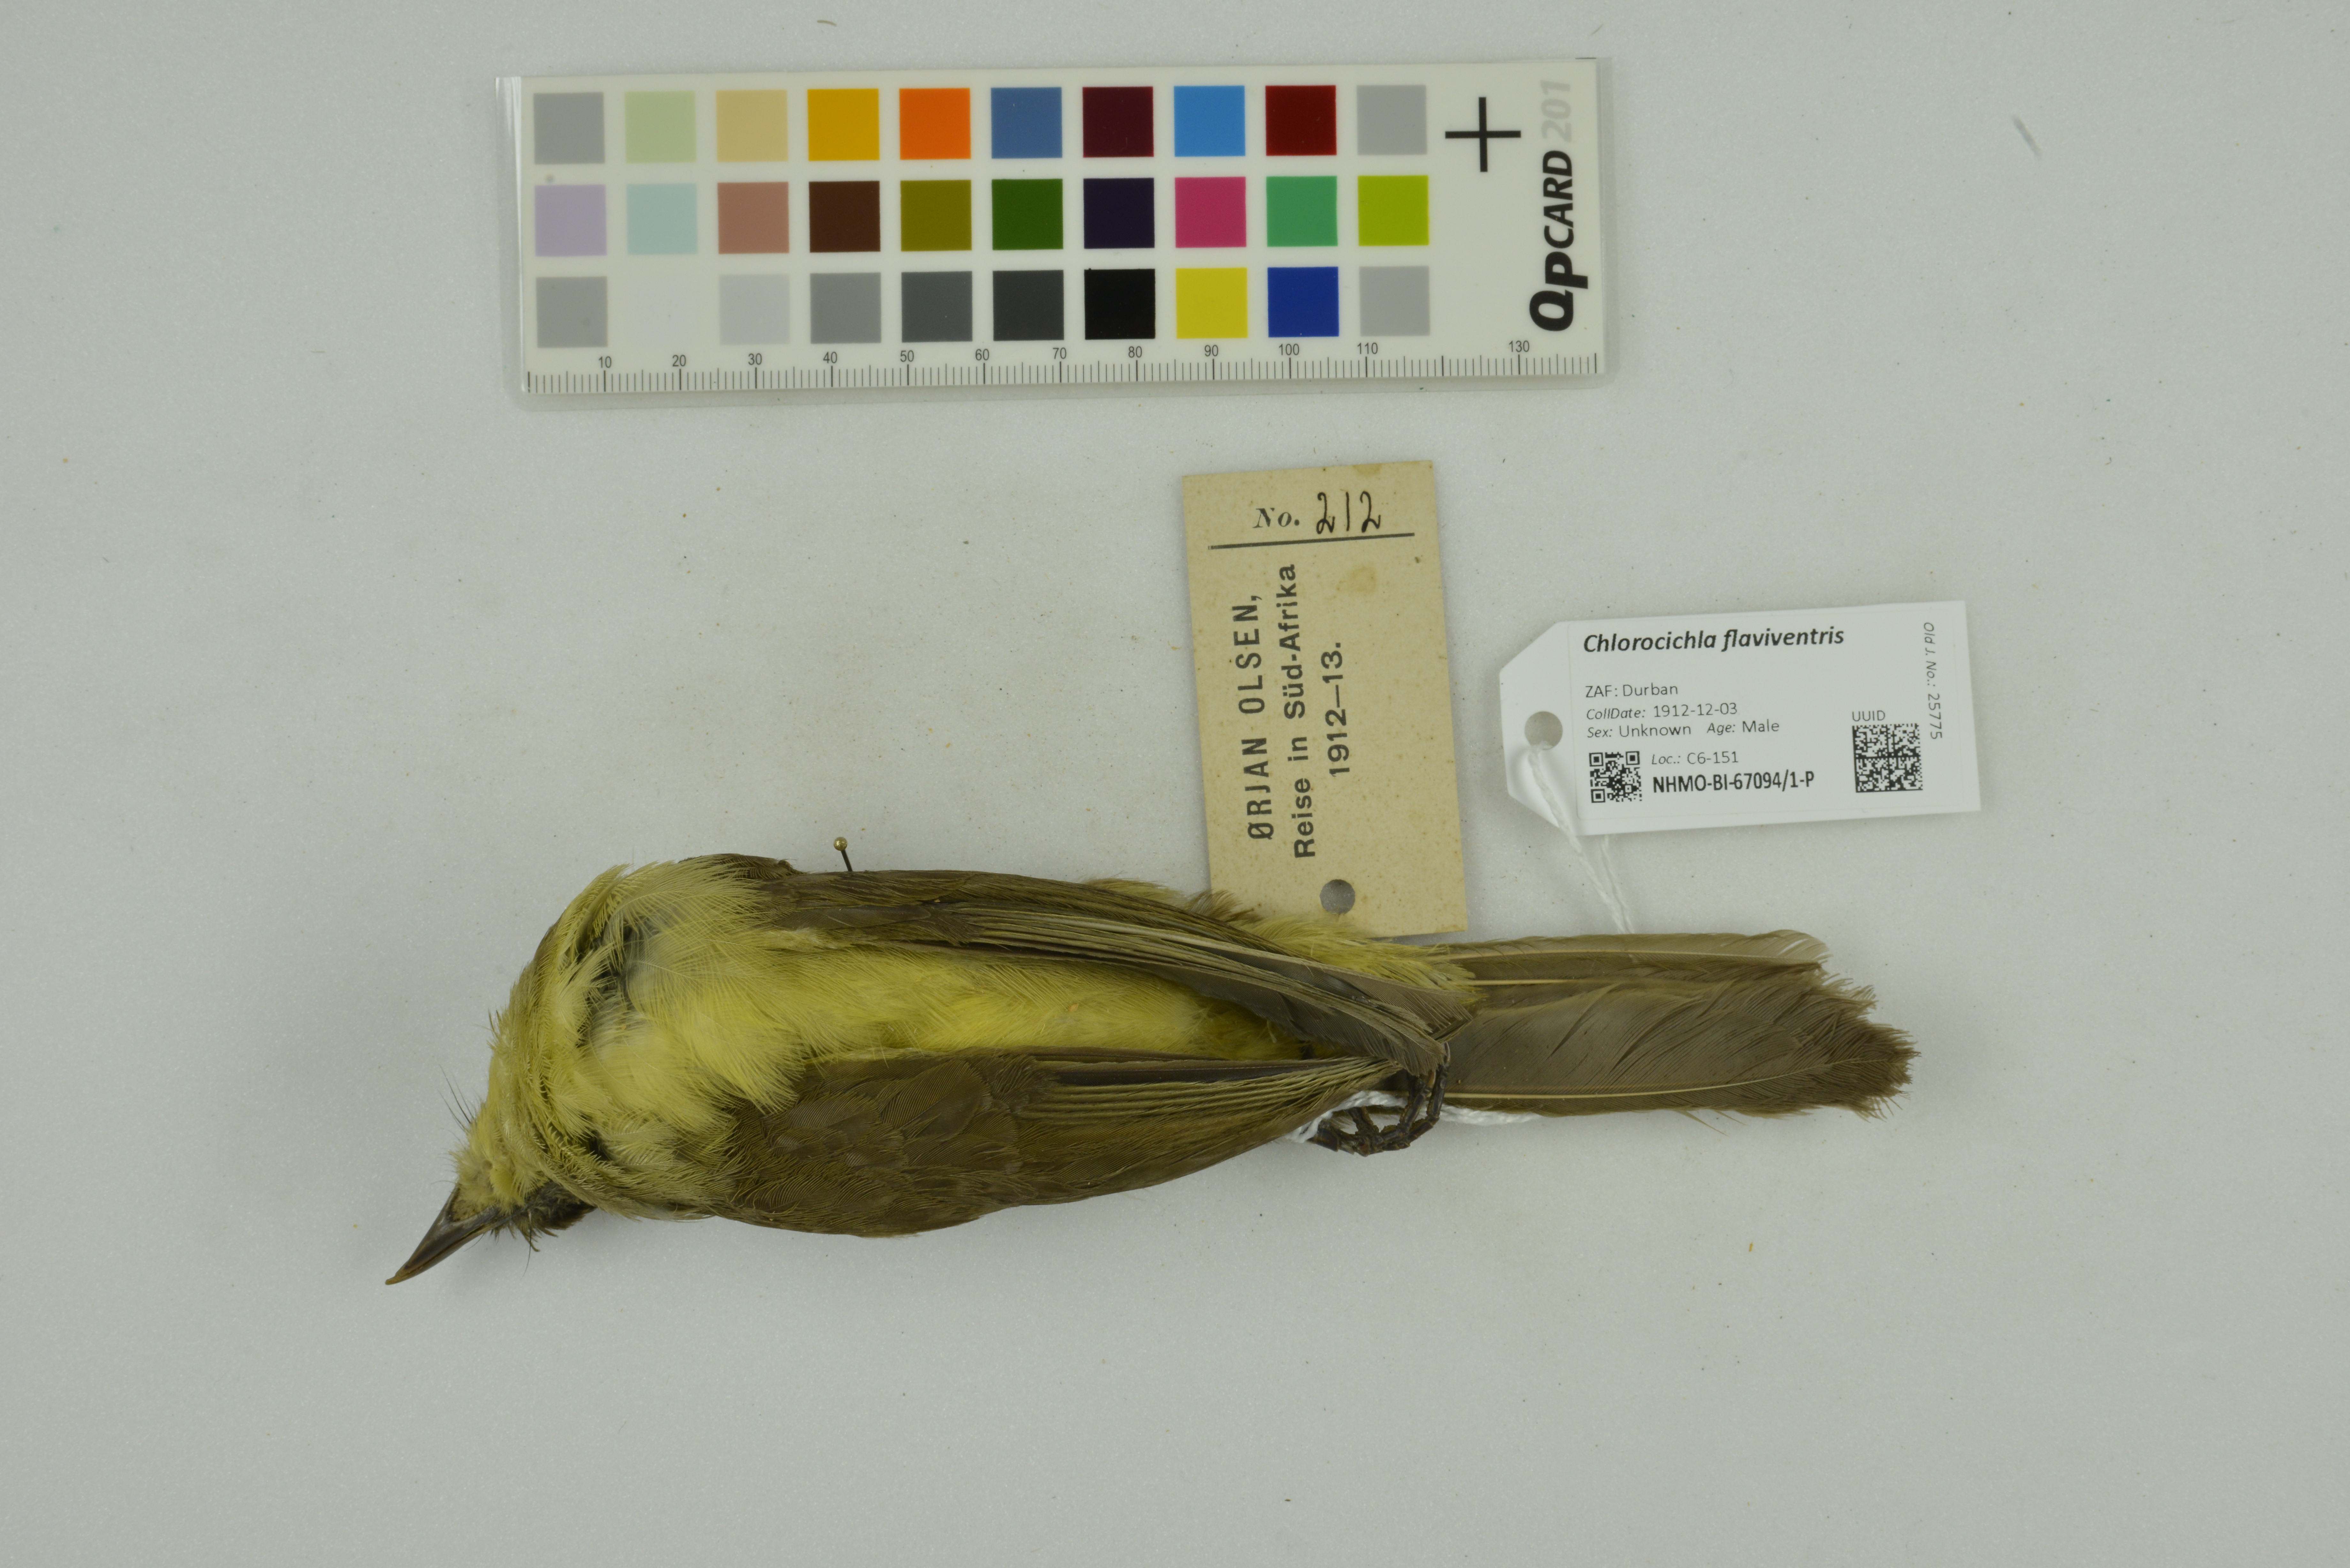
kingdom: Animalia
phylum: Chordata
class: Aves
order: Passeriformes
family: Pycnonotidae
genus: Chlorocichla
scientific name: Chlorocichla flaviventris
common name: Yellow-bellied greenbul
